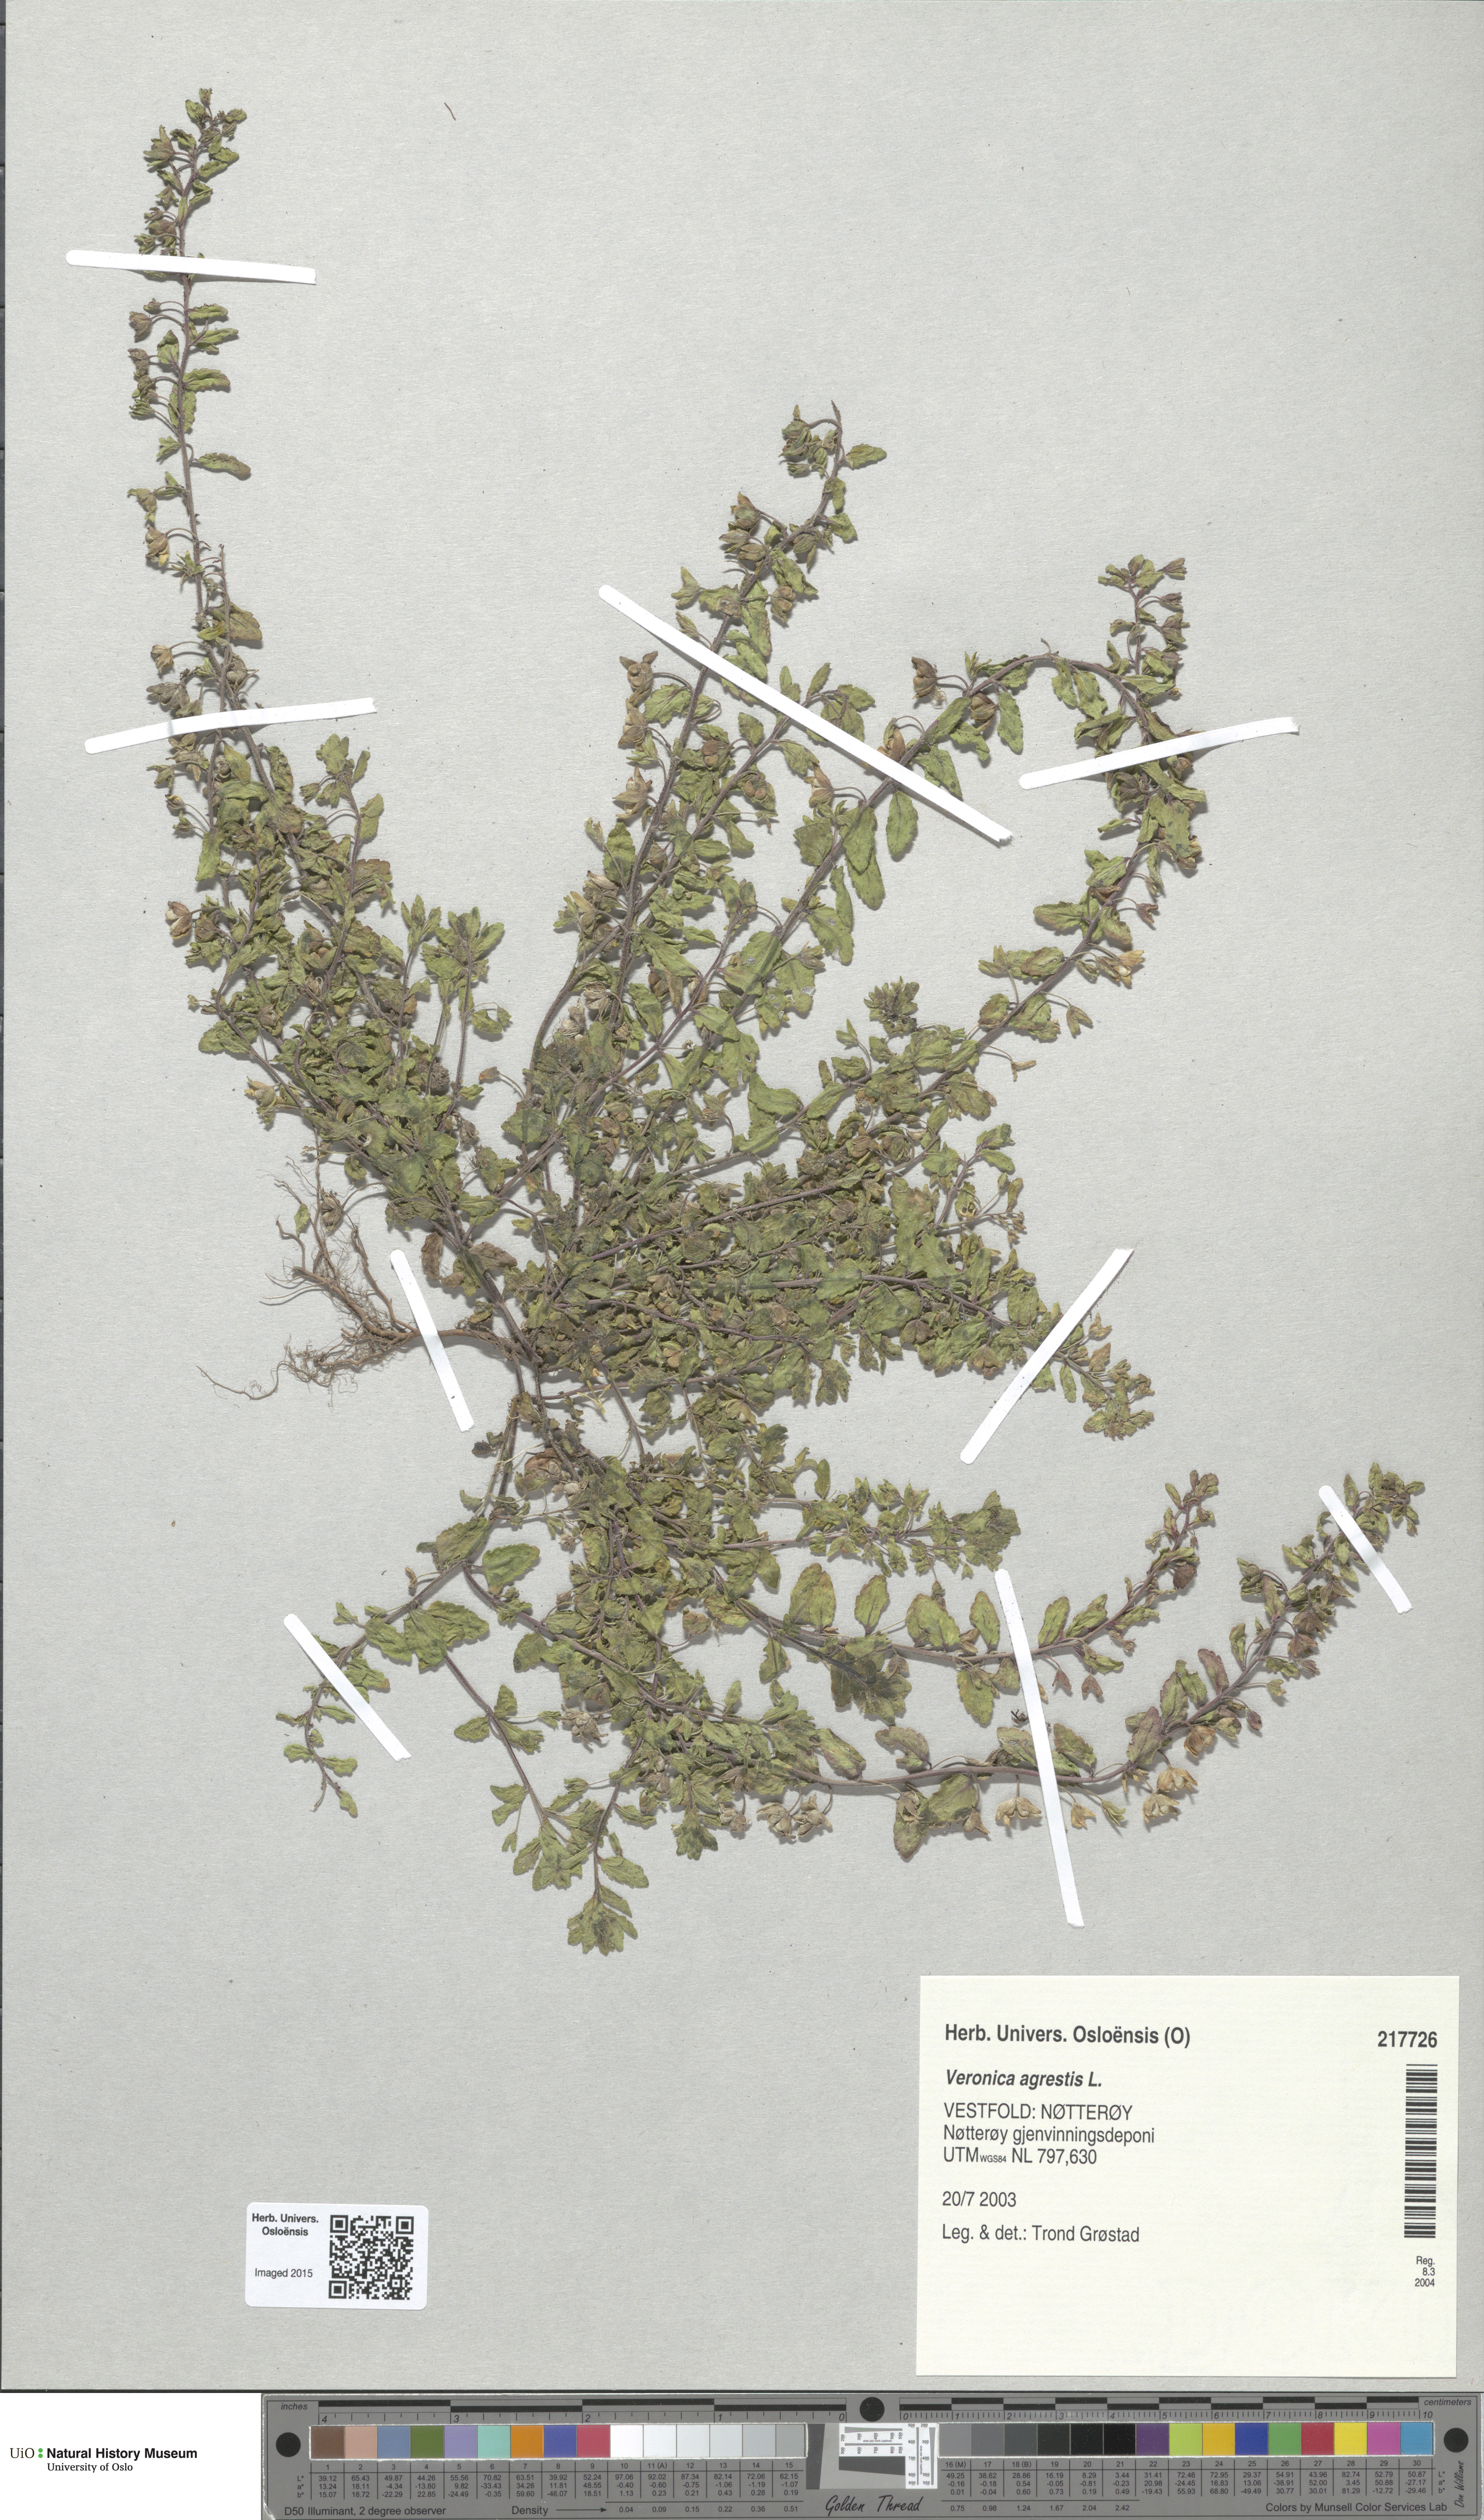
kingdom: Plantae
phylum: Tracheophyta
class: Magnoliopsida
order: Lamiales
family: Plantaginaceae
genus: Veronica
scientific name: Veronica agrestis
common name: Green field-speedwell
